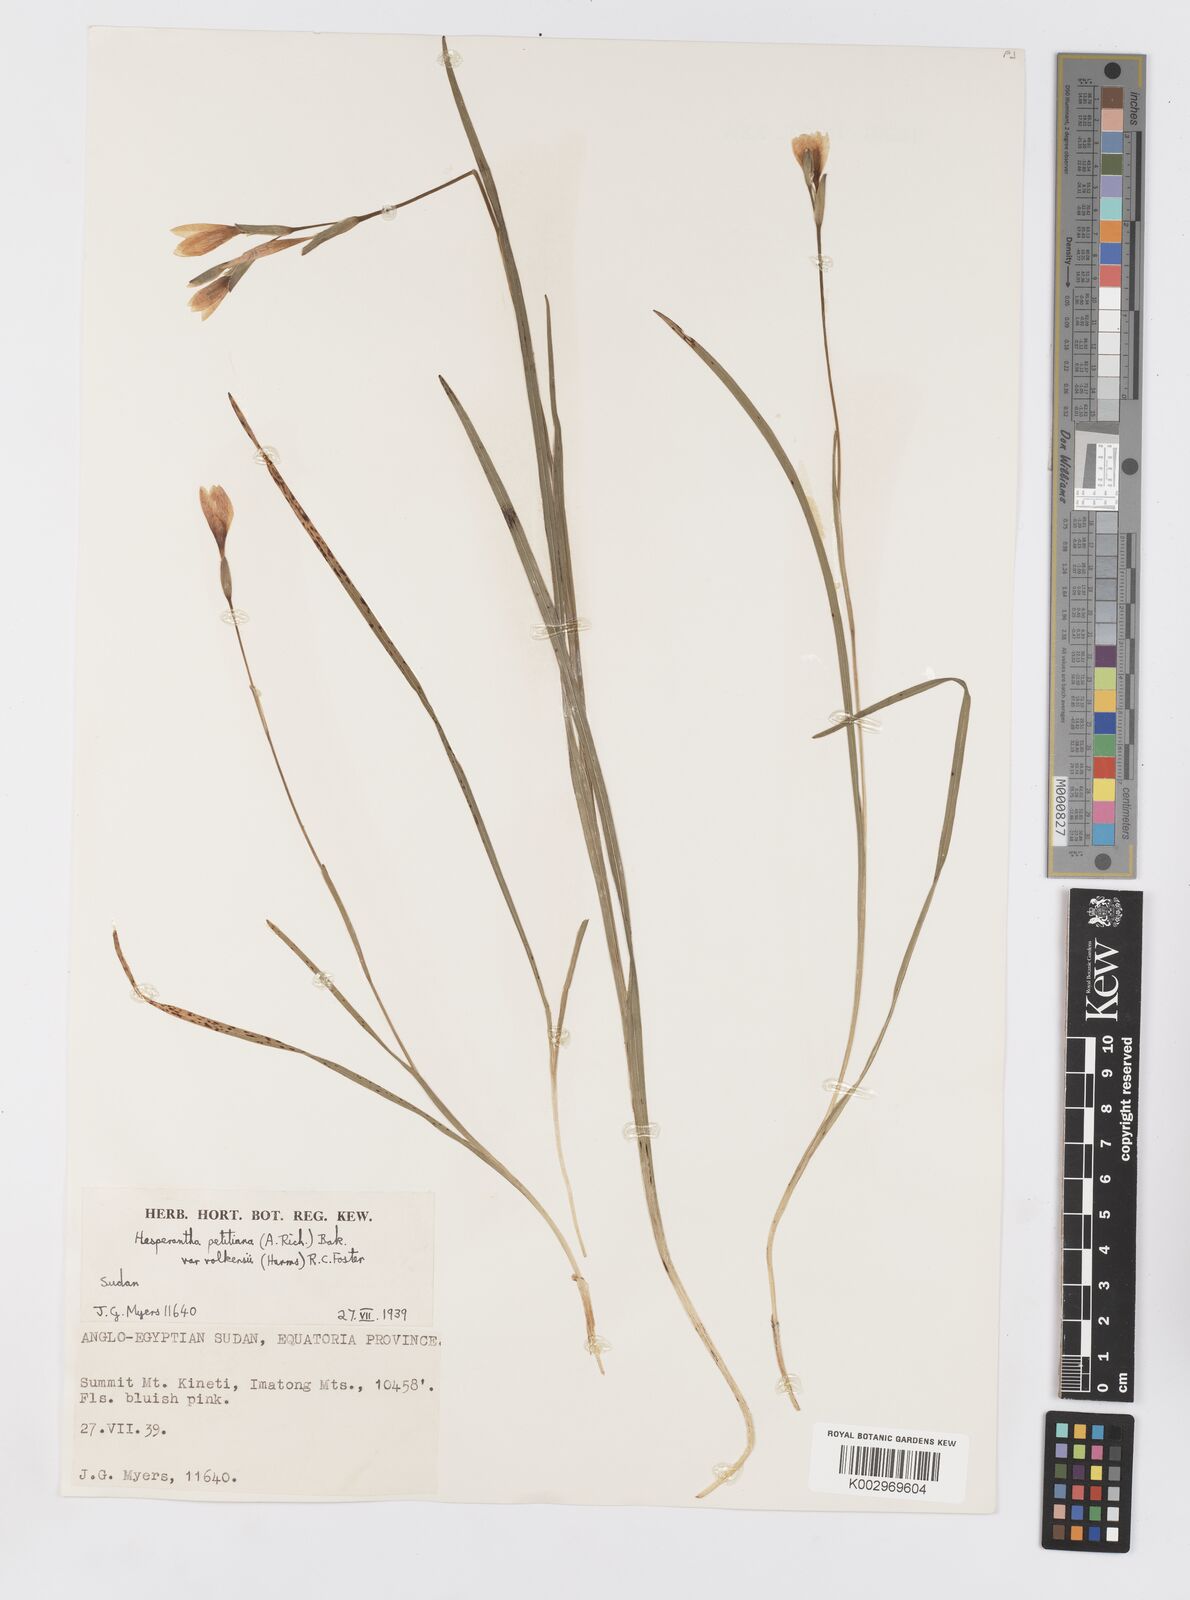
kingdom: Plantae
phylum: Tracheophyta
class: Liliopsida
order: Asparagales
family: Iridaceae
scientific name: Iridaceae
